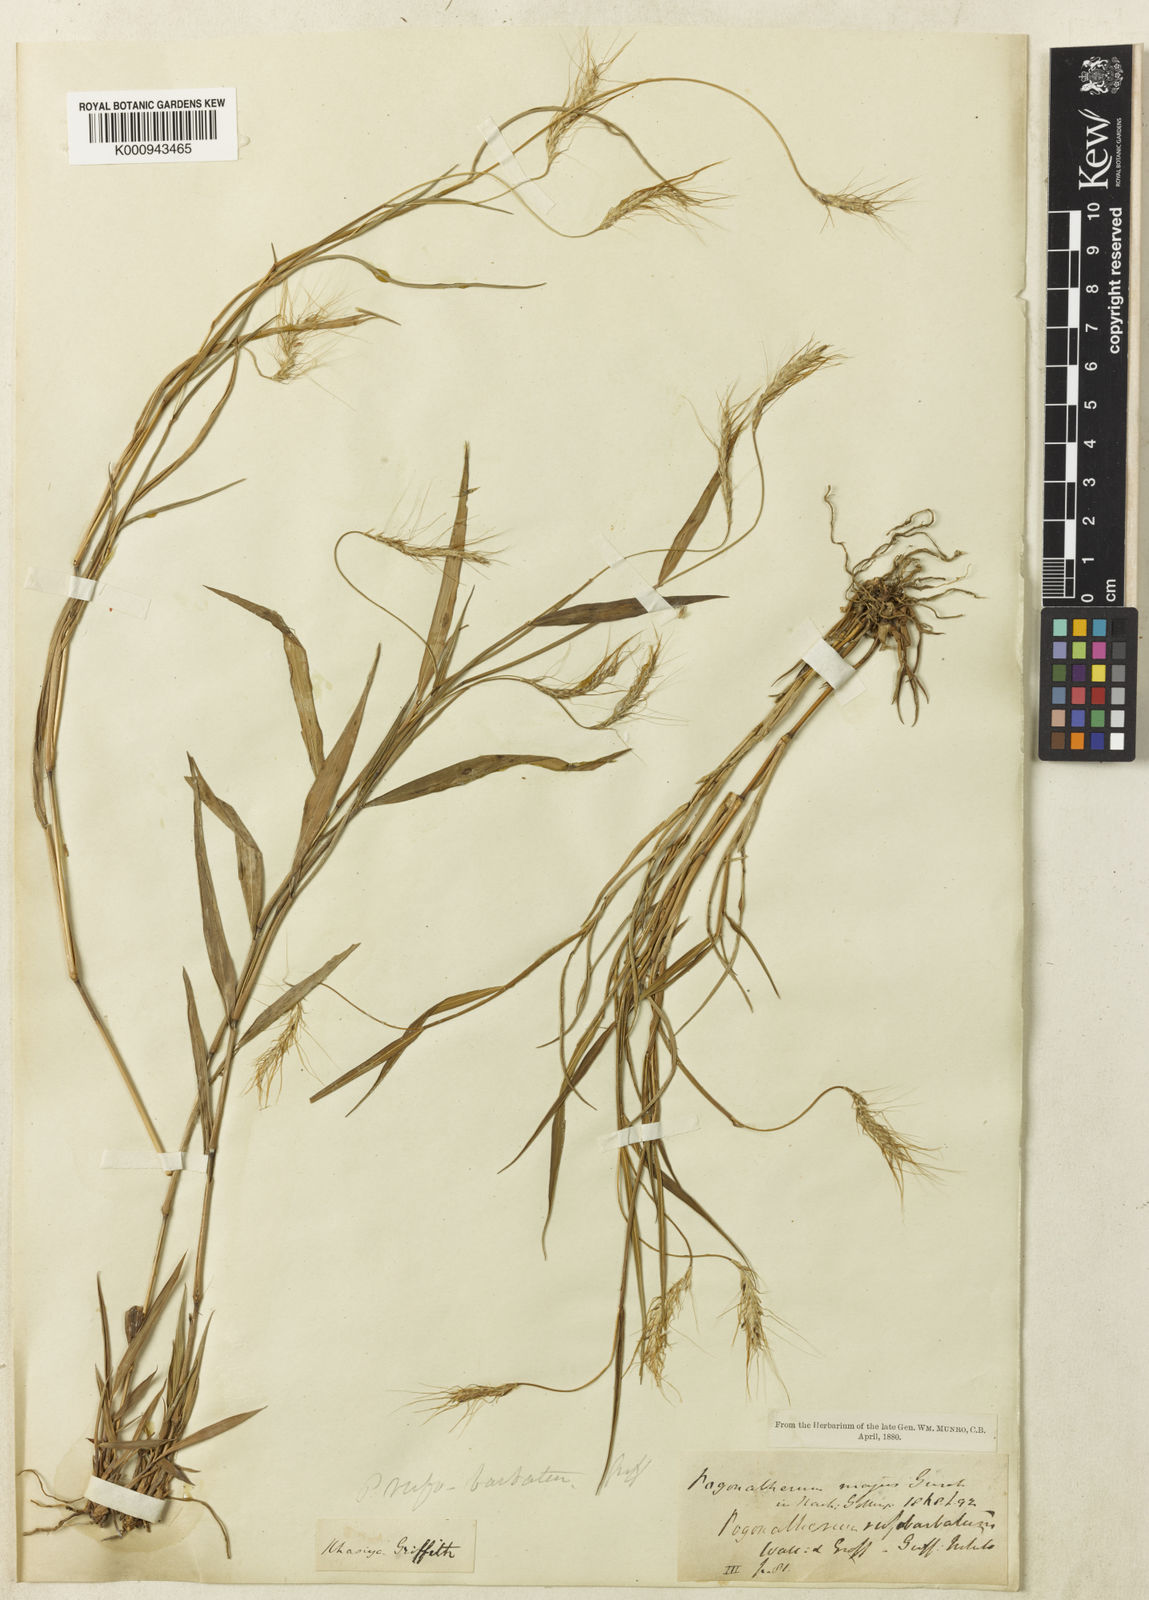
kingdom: Plantae
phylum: Tracheophyta
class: Liliopsida
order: Poales
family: Poaceae
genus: Pogonatherum
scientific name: Pogonatherum rufobarbatum
